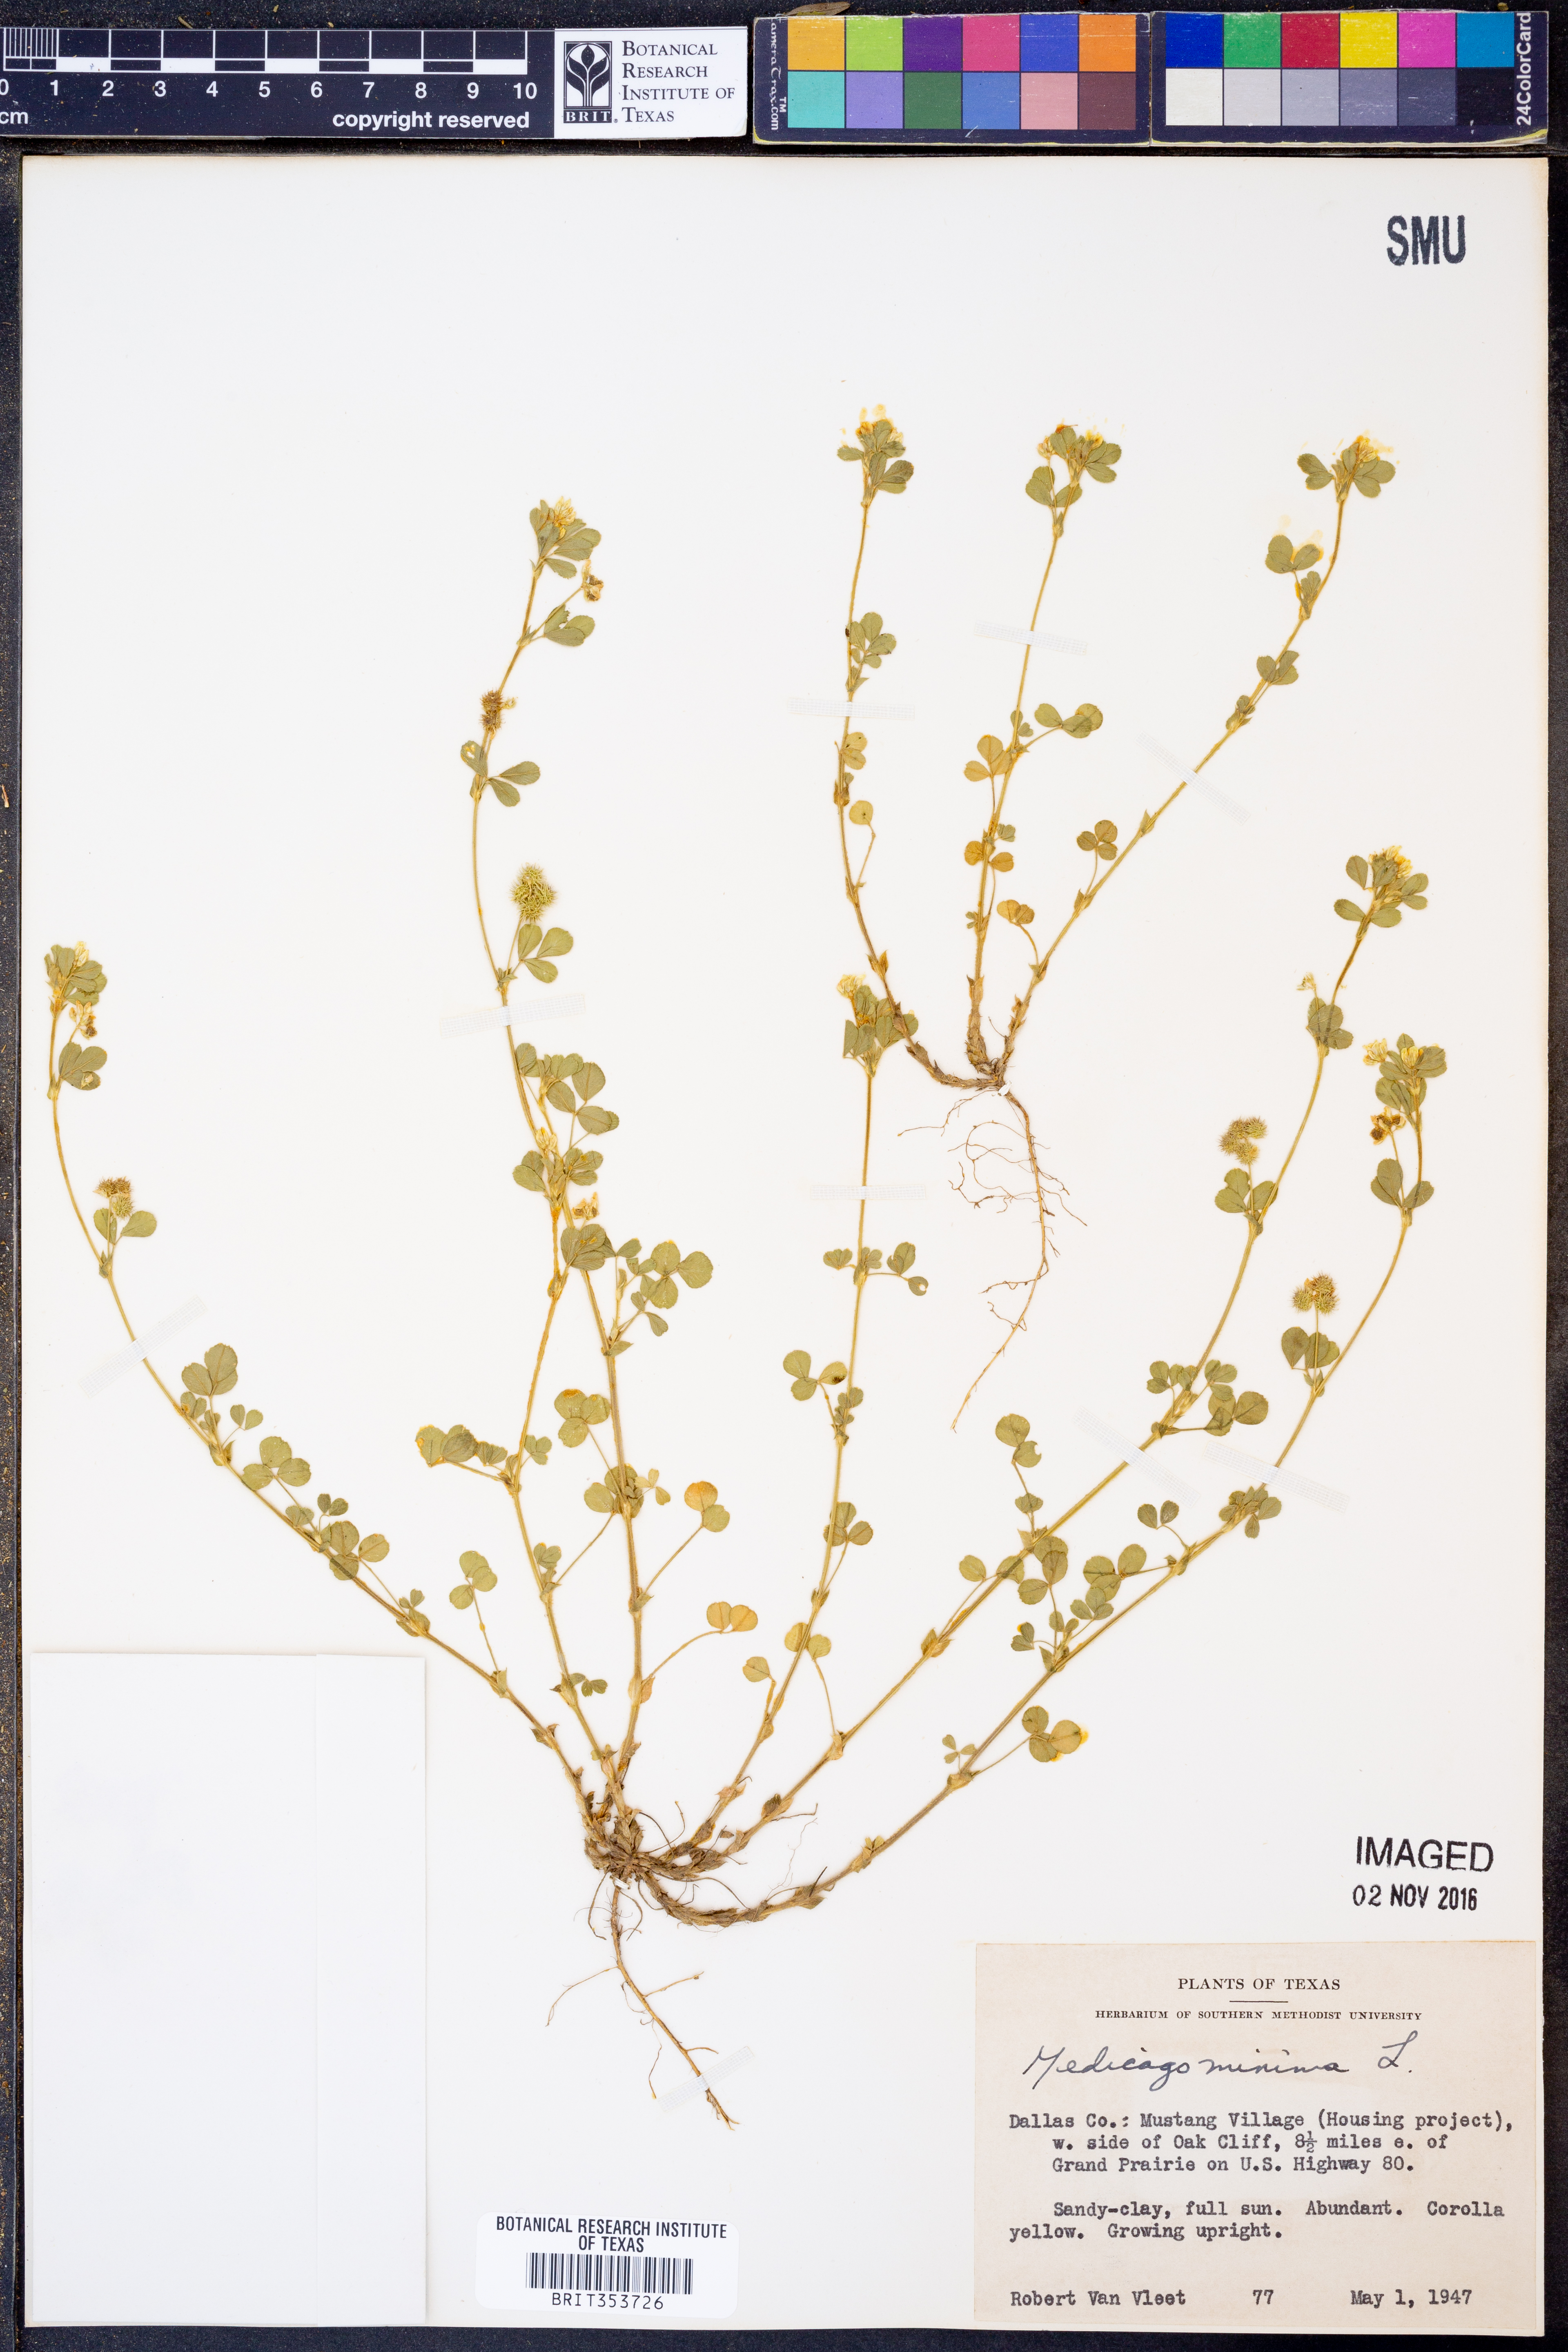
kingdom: Plantae
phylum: Tracheophyta
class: Magnoliopsida
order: Fabales
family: Fabaceae
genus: Medicago
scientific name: Medicago minima
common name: Little bur-clover
